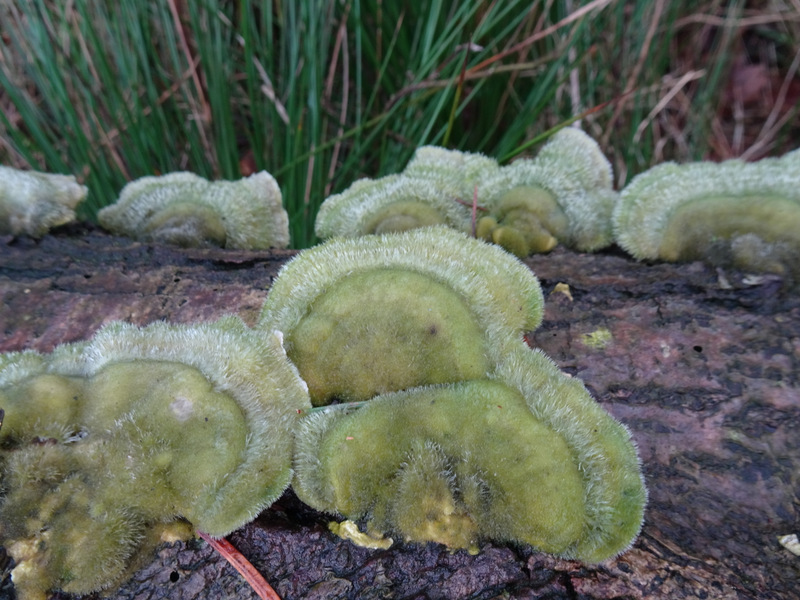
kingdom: Fungi
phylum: Basidiomycota
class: Agaricomycetes
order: Polyporales
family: Polyporaceae
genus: Trametes
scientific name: Trametes hirsuta
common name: håret læderporesvamp
